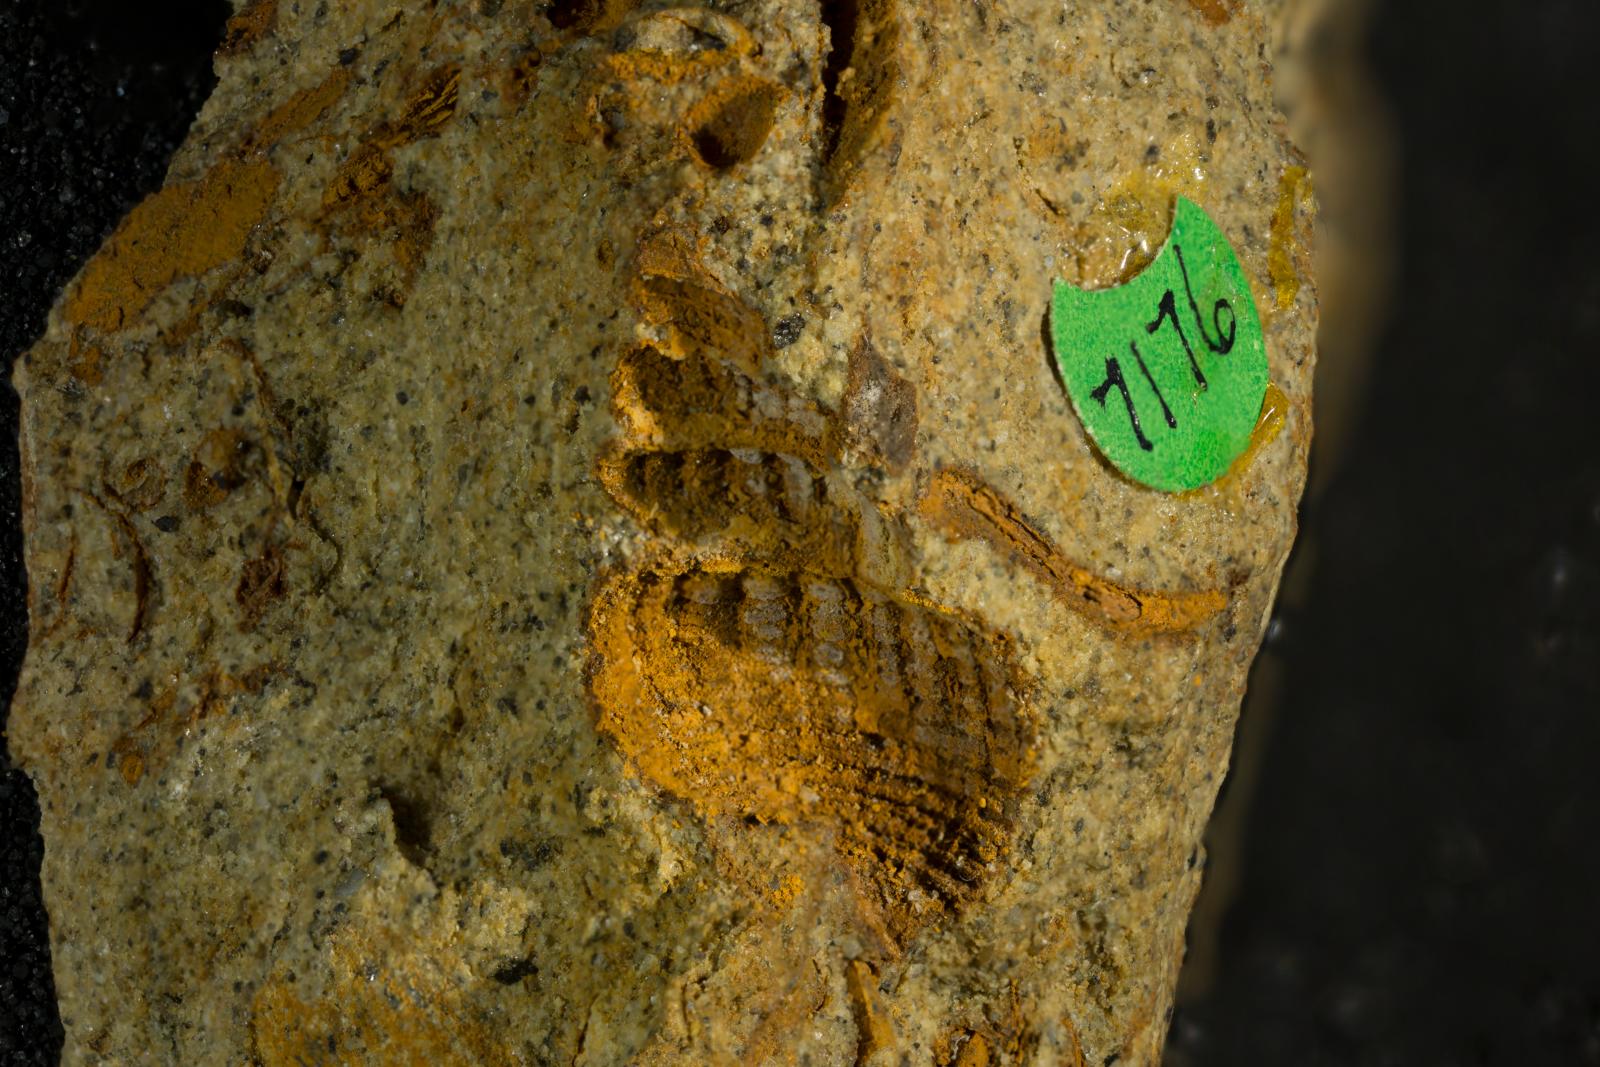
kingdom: Animalia
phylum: Mollusca
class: Gastropoda
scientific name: Gastropoda
